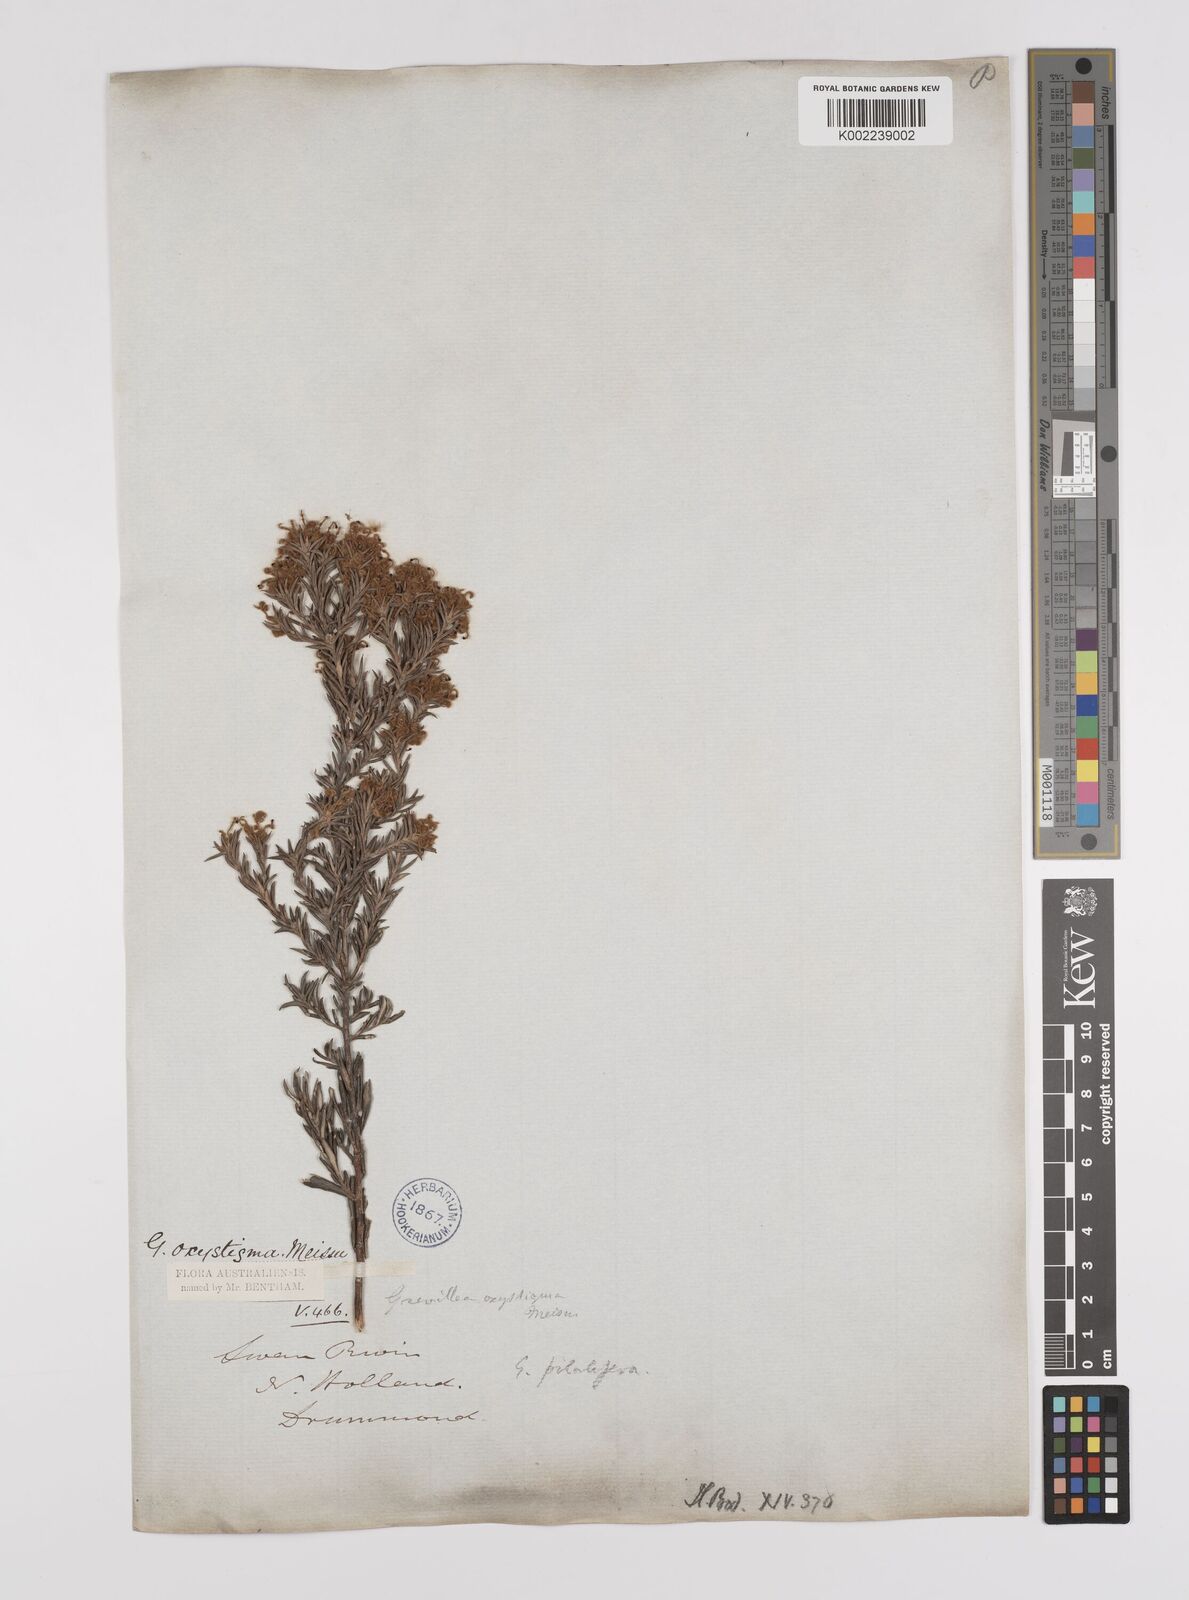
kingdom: Plantae
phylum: Tracheophyta
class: Magnoliopsida
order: Proteales
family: Proteaceae
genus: Grevillea
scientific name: Grevillea pilulifera
